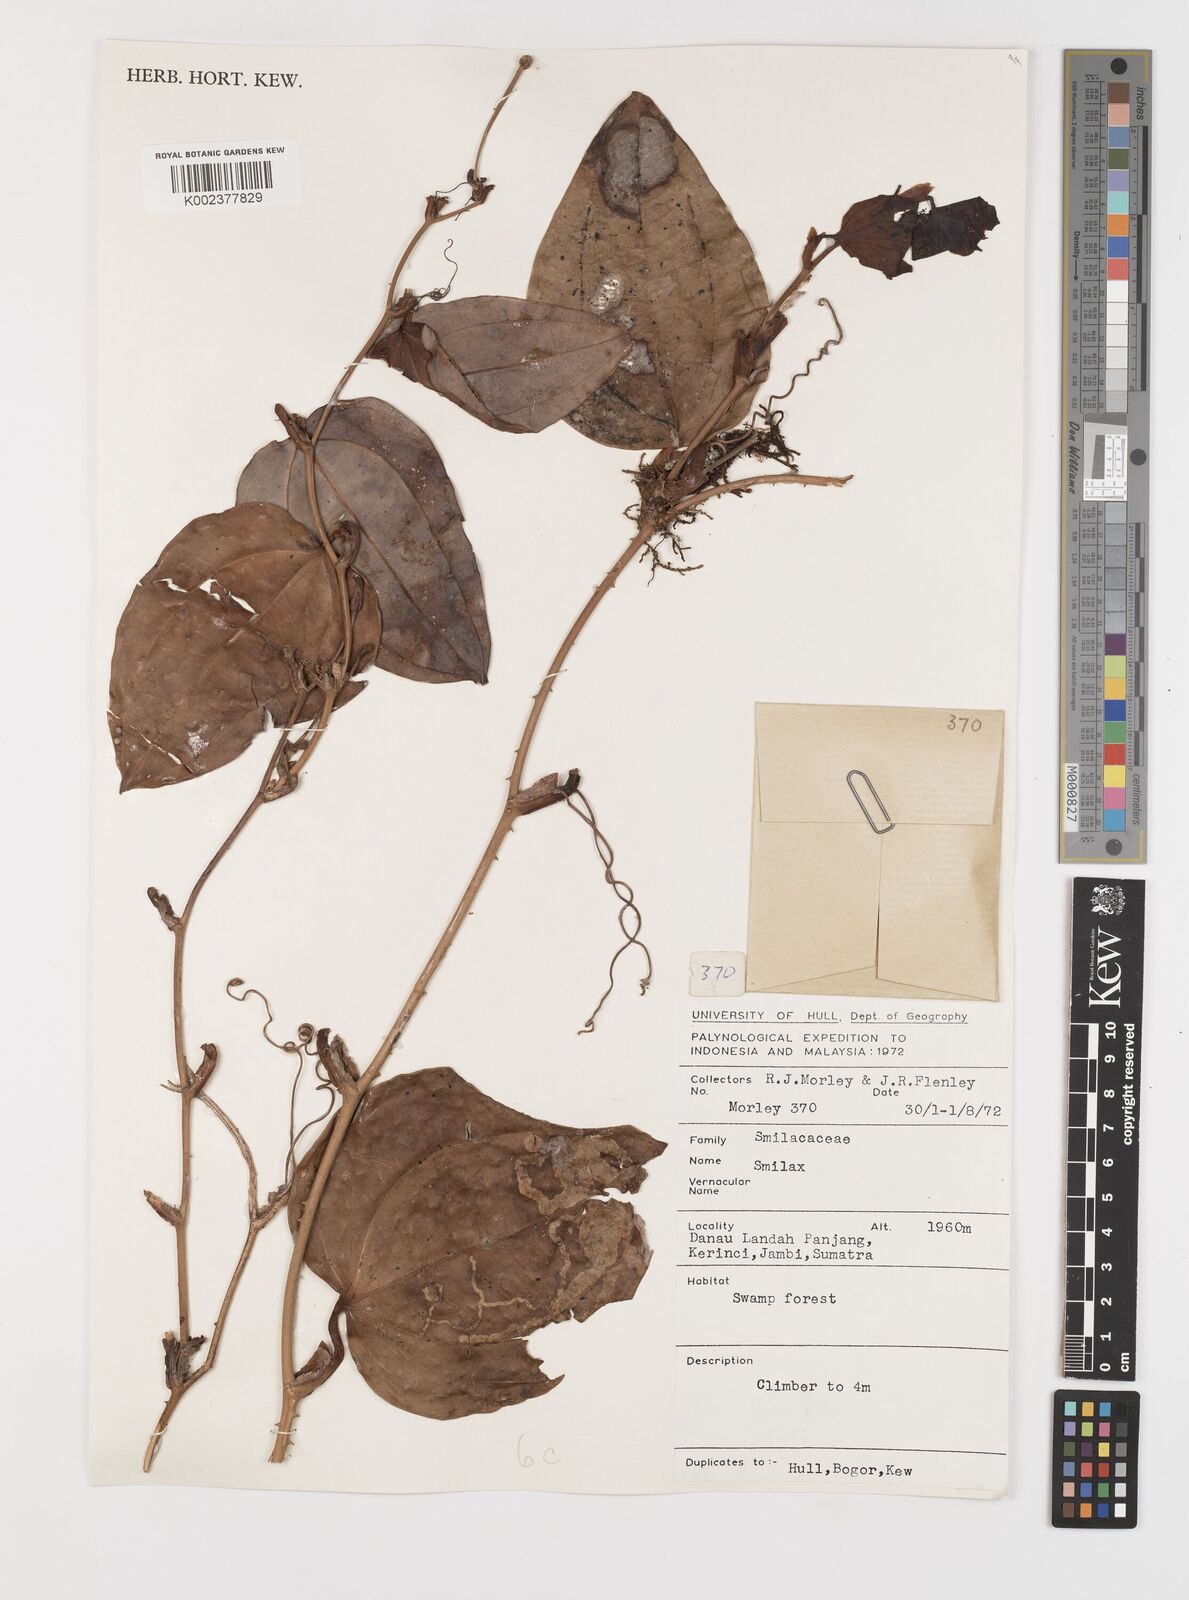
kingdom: Plantae
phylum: Tracheophyta
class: Liliopsida
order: Liliales
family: Smilacaceae
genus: Smilax
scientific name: Smilax
